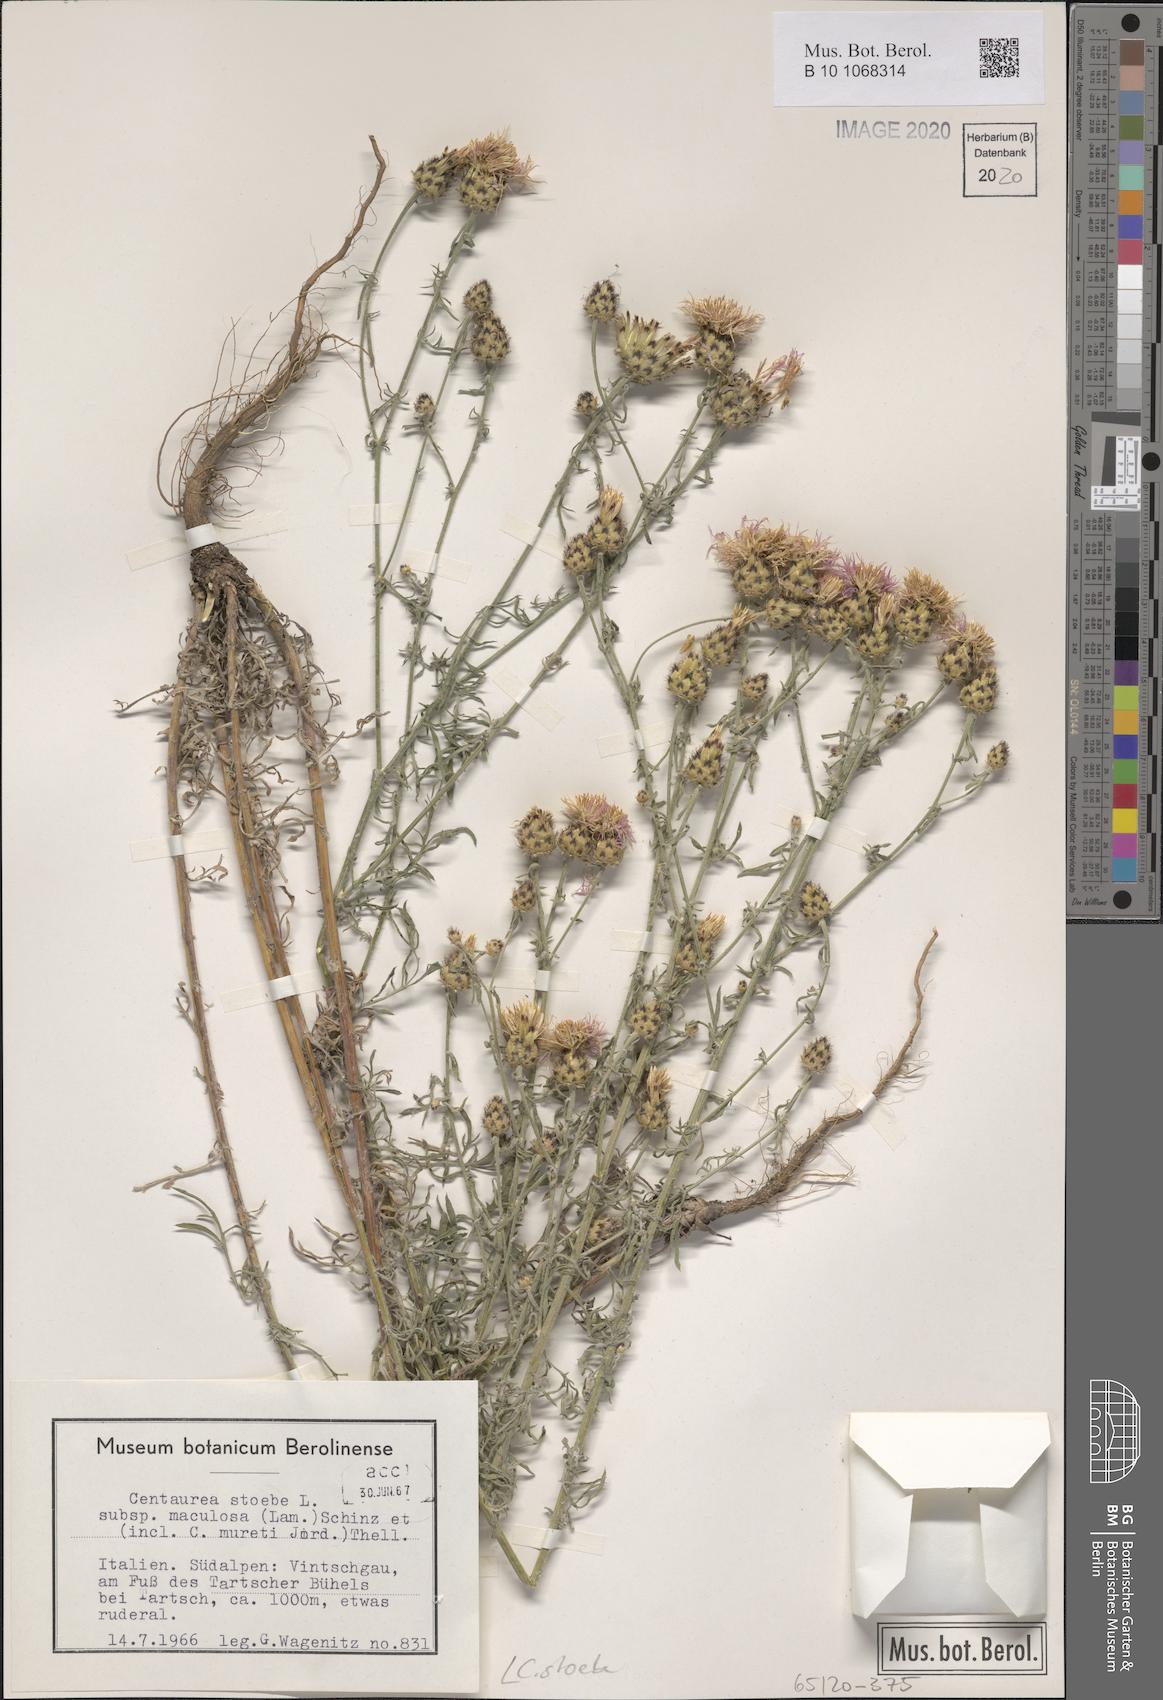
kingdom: Plantae
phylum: Tracheophyta
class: Magnoliopsida
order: Asterales
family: Asteraceae
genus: Centaurea
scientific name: Centaurea stoebe
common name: Spotted knapweed
